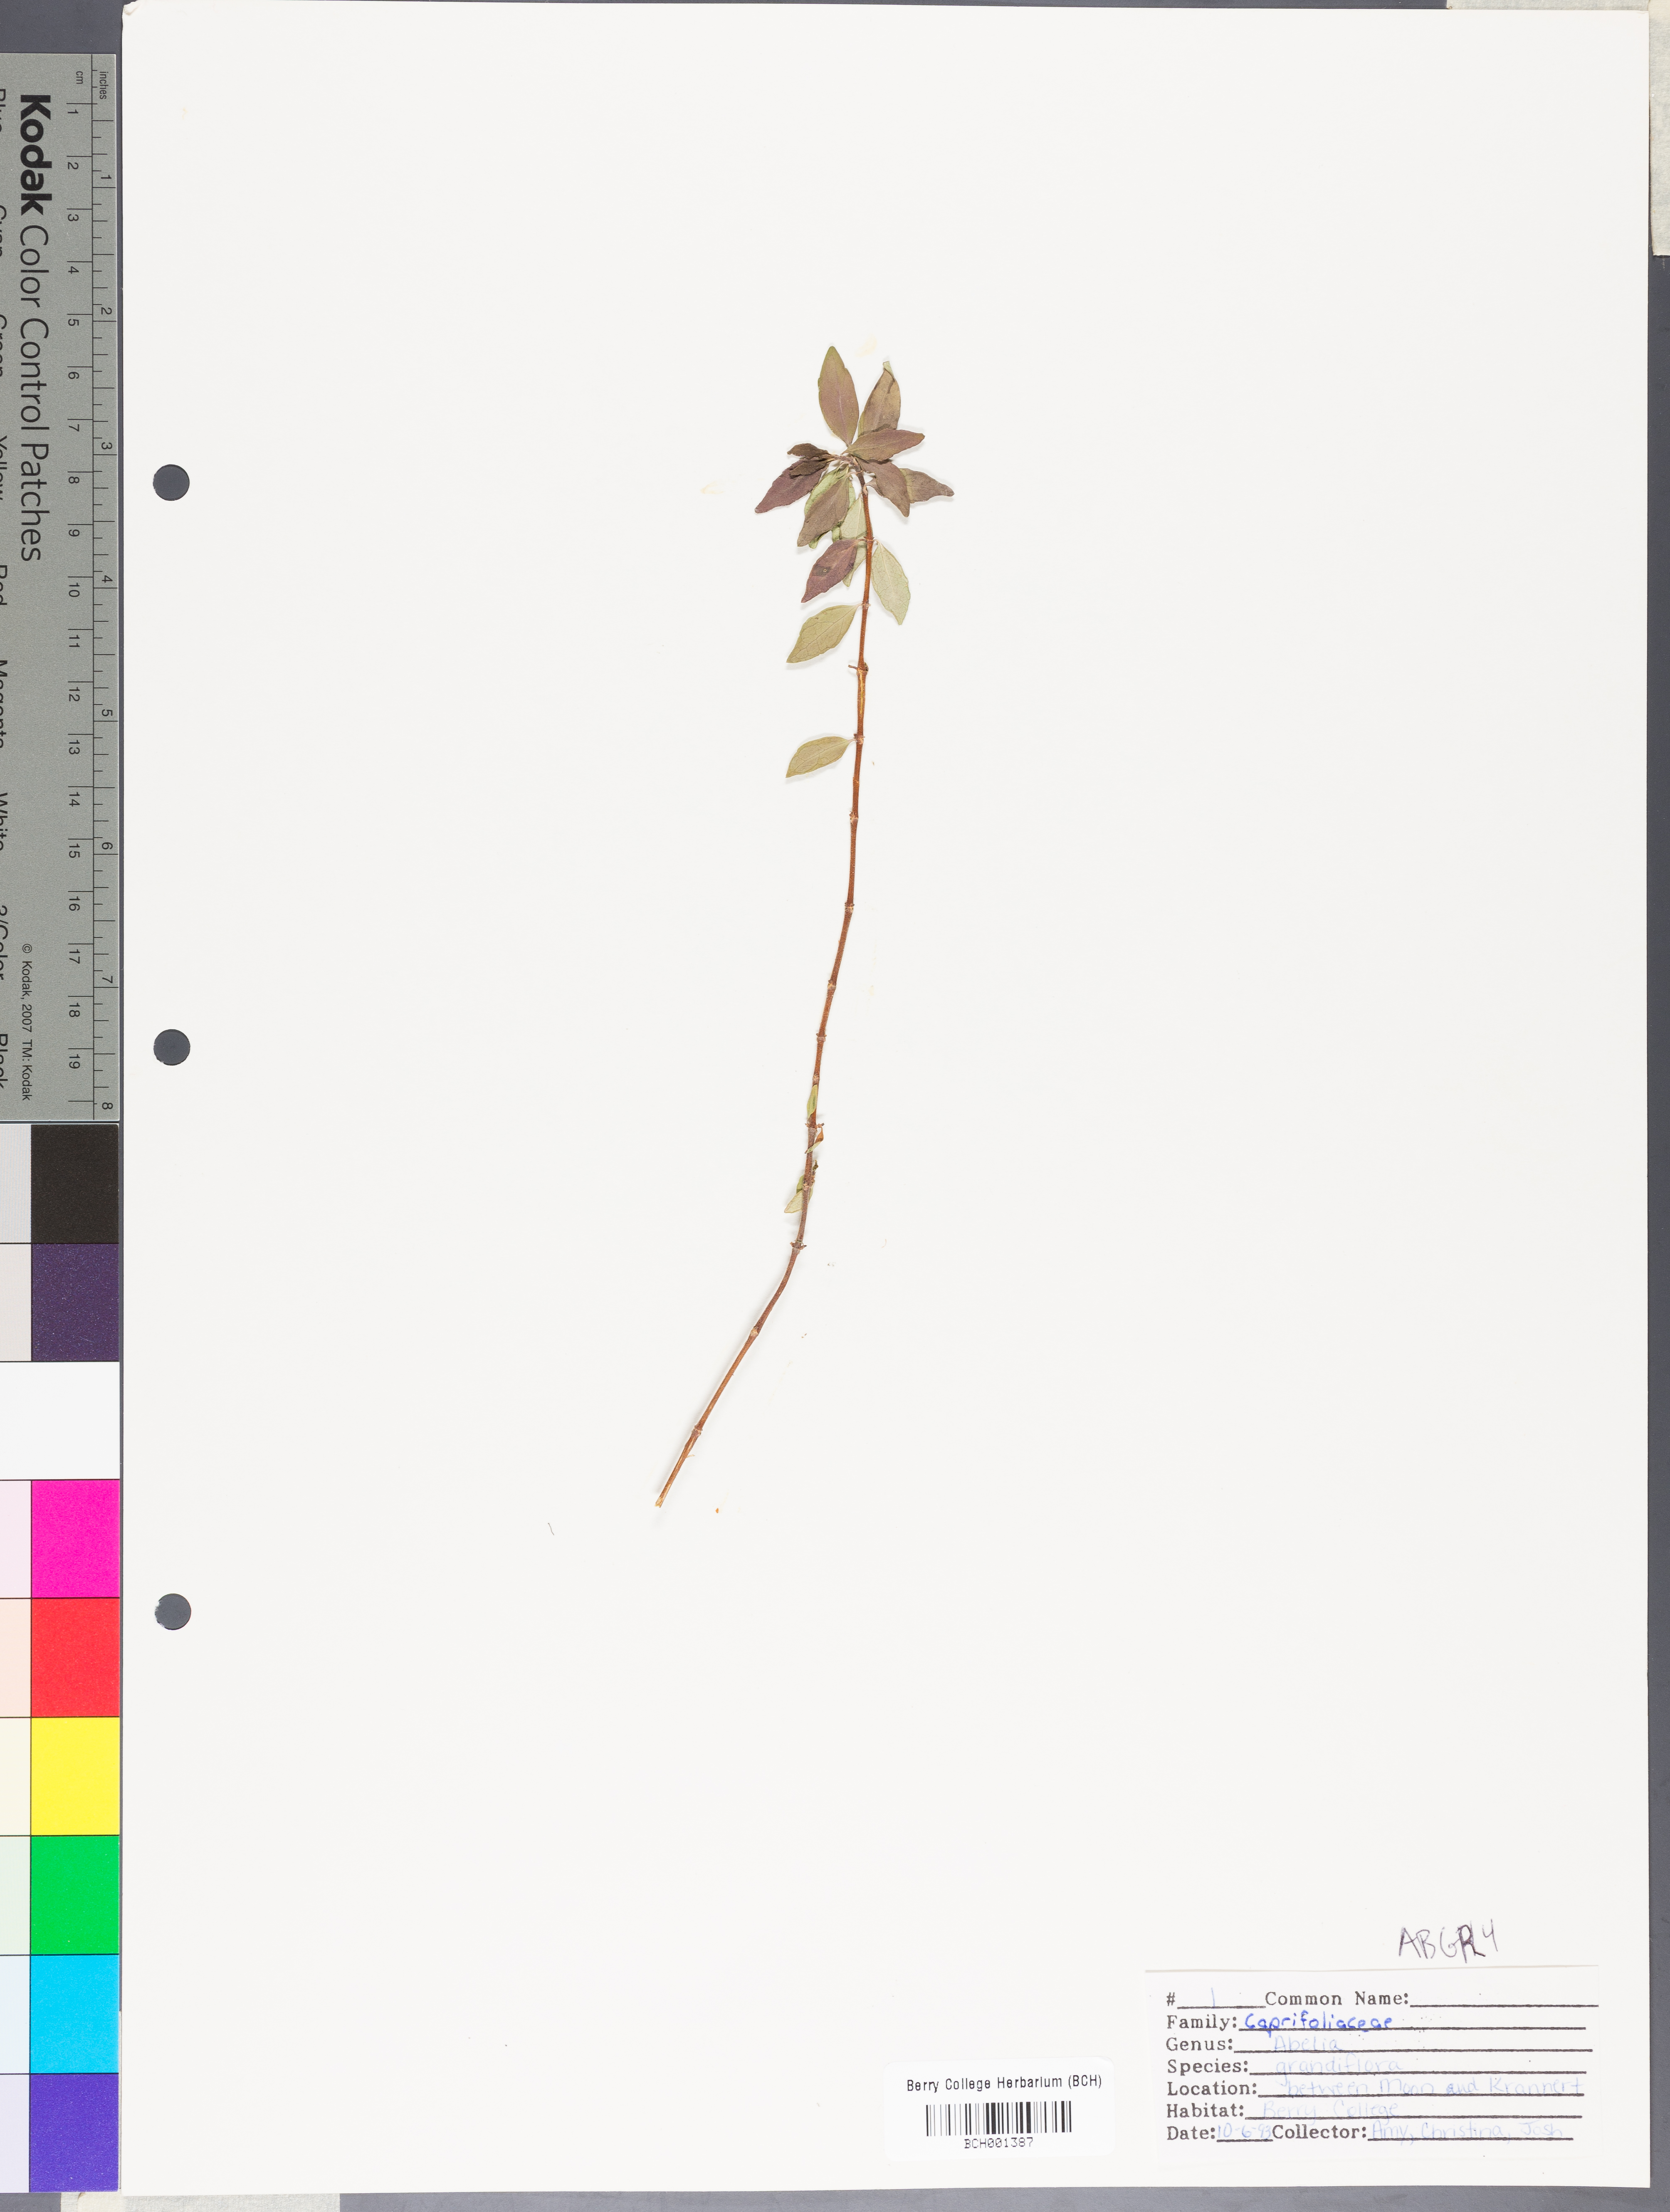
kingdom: Plantae
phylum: Tracheophyta
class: Magnoliopsida
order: Dipsacales
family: Caprifoliaceae
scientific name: Caprifoliaceae
